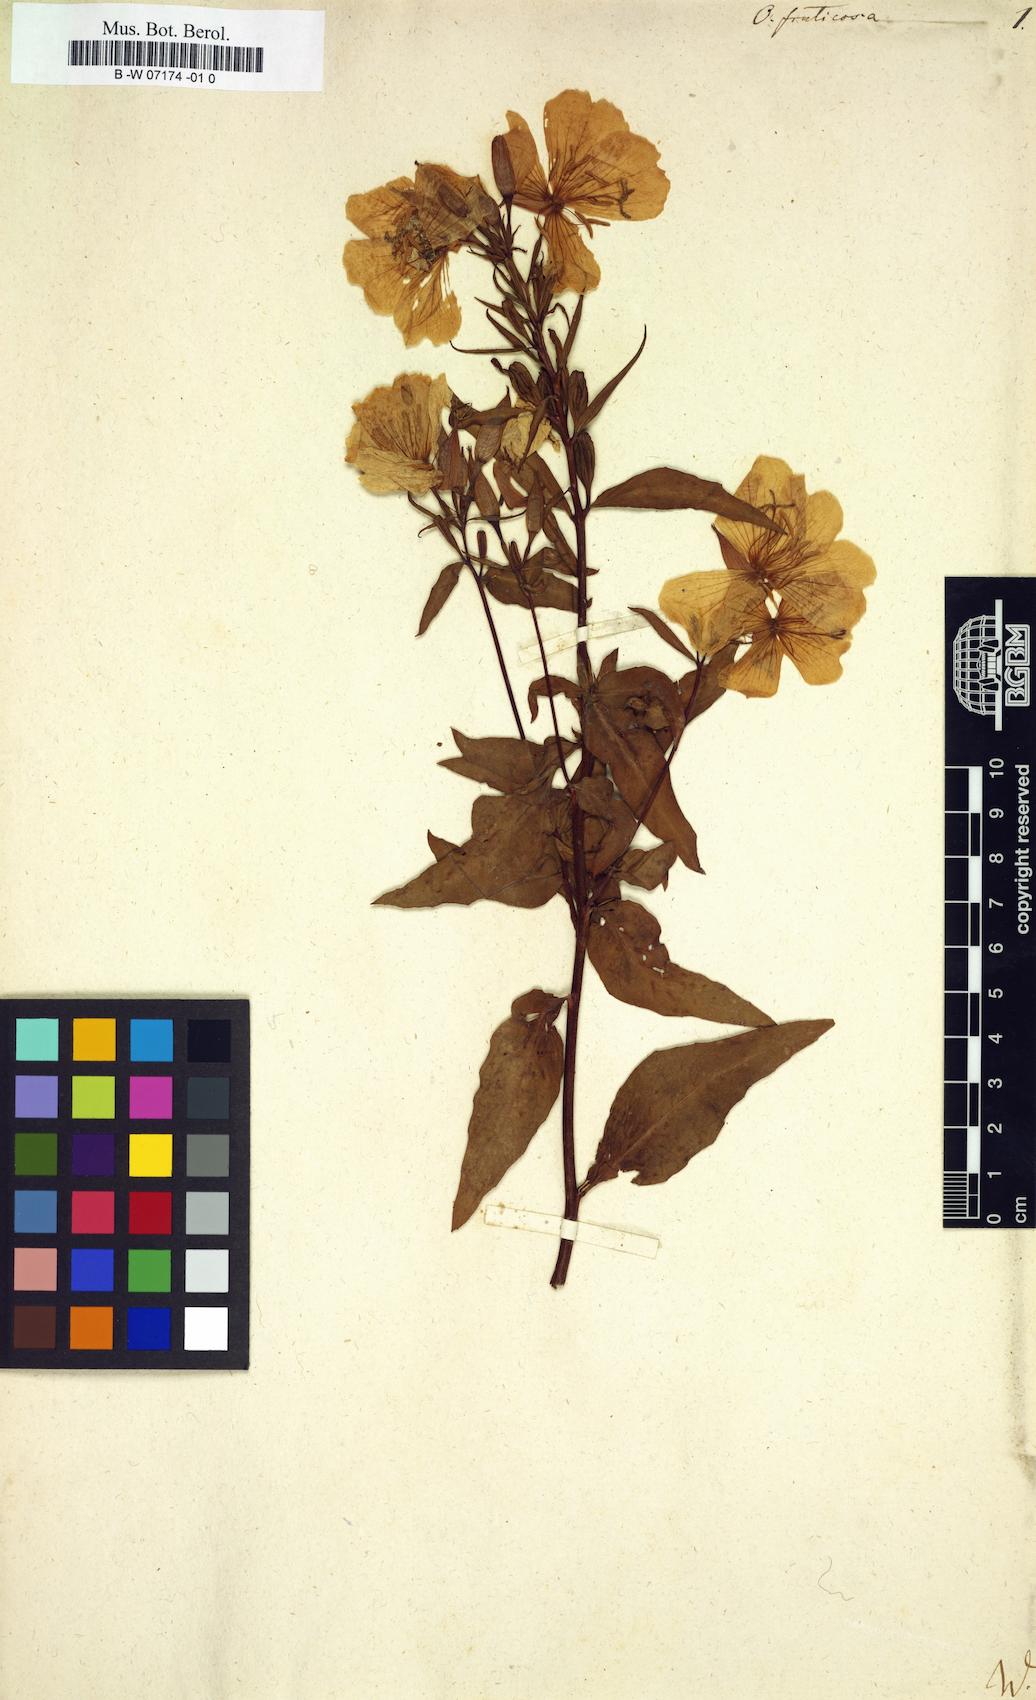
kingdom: Plantae
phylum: Tracheophyta
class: Magnoliopsida
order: Myrtales
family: Onagraceae
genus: Oenothera
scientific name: Oenothera fruticosa
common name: Southern sundrops
